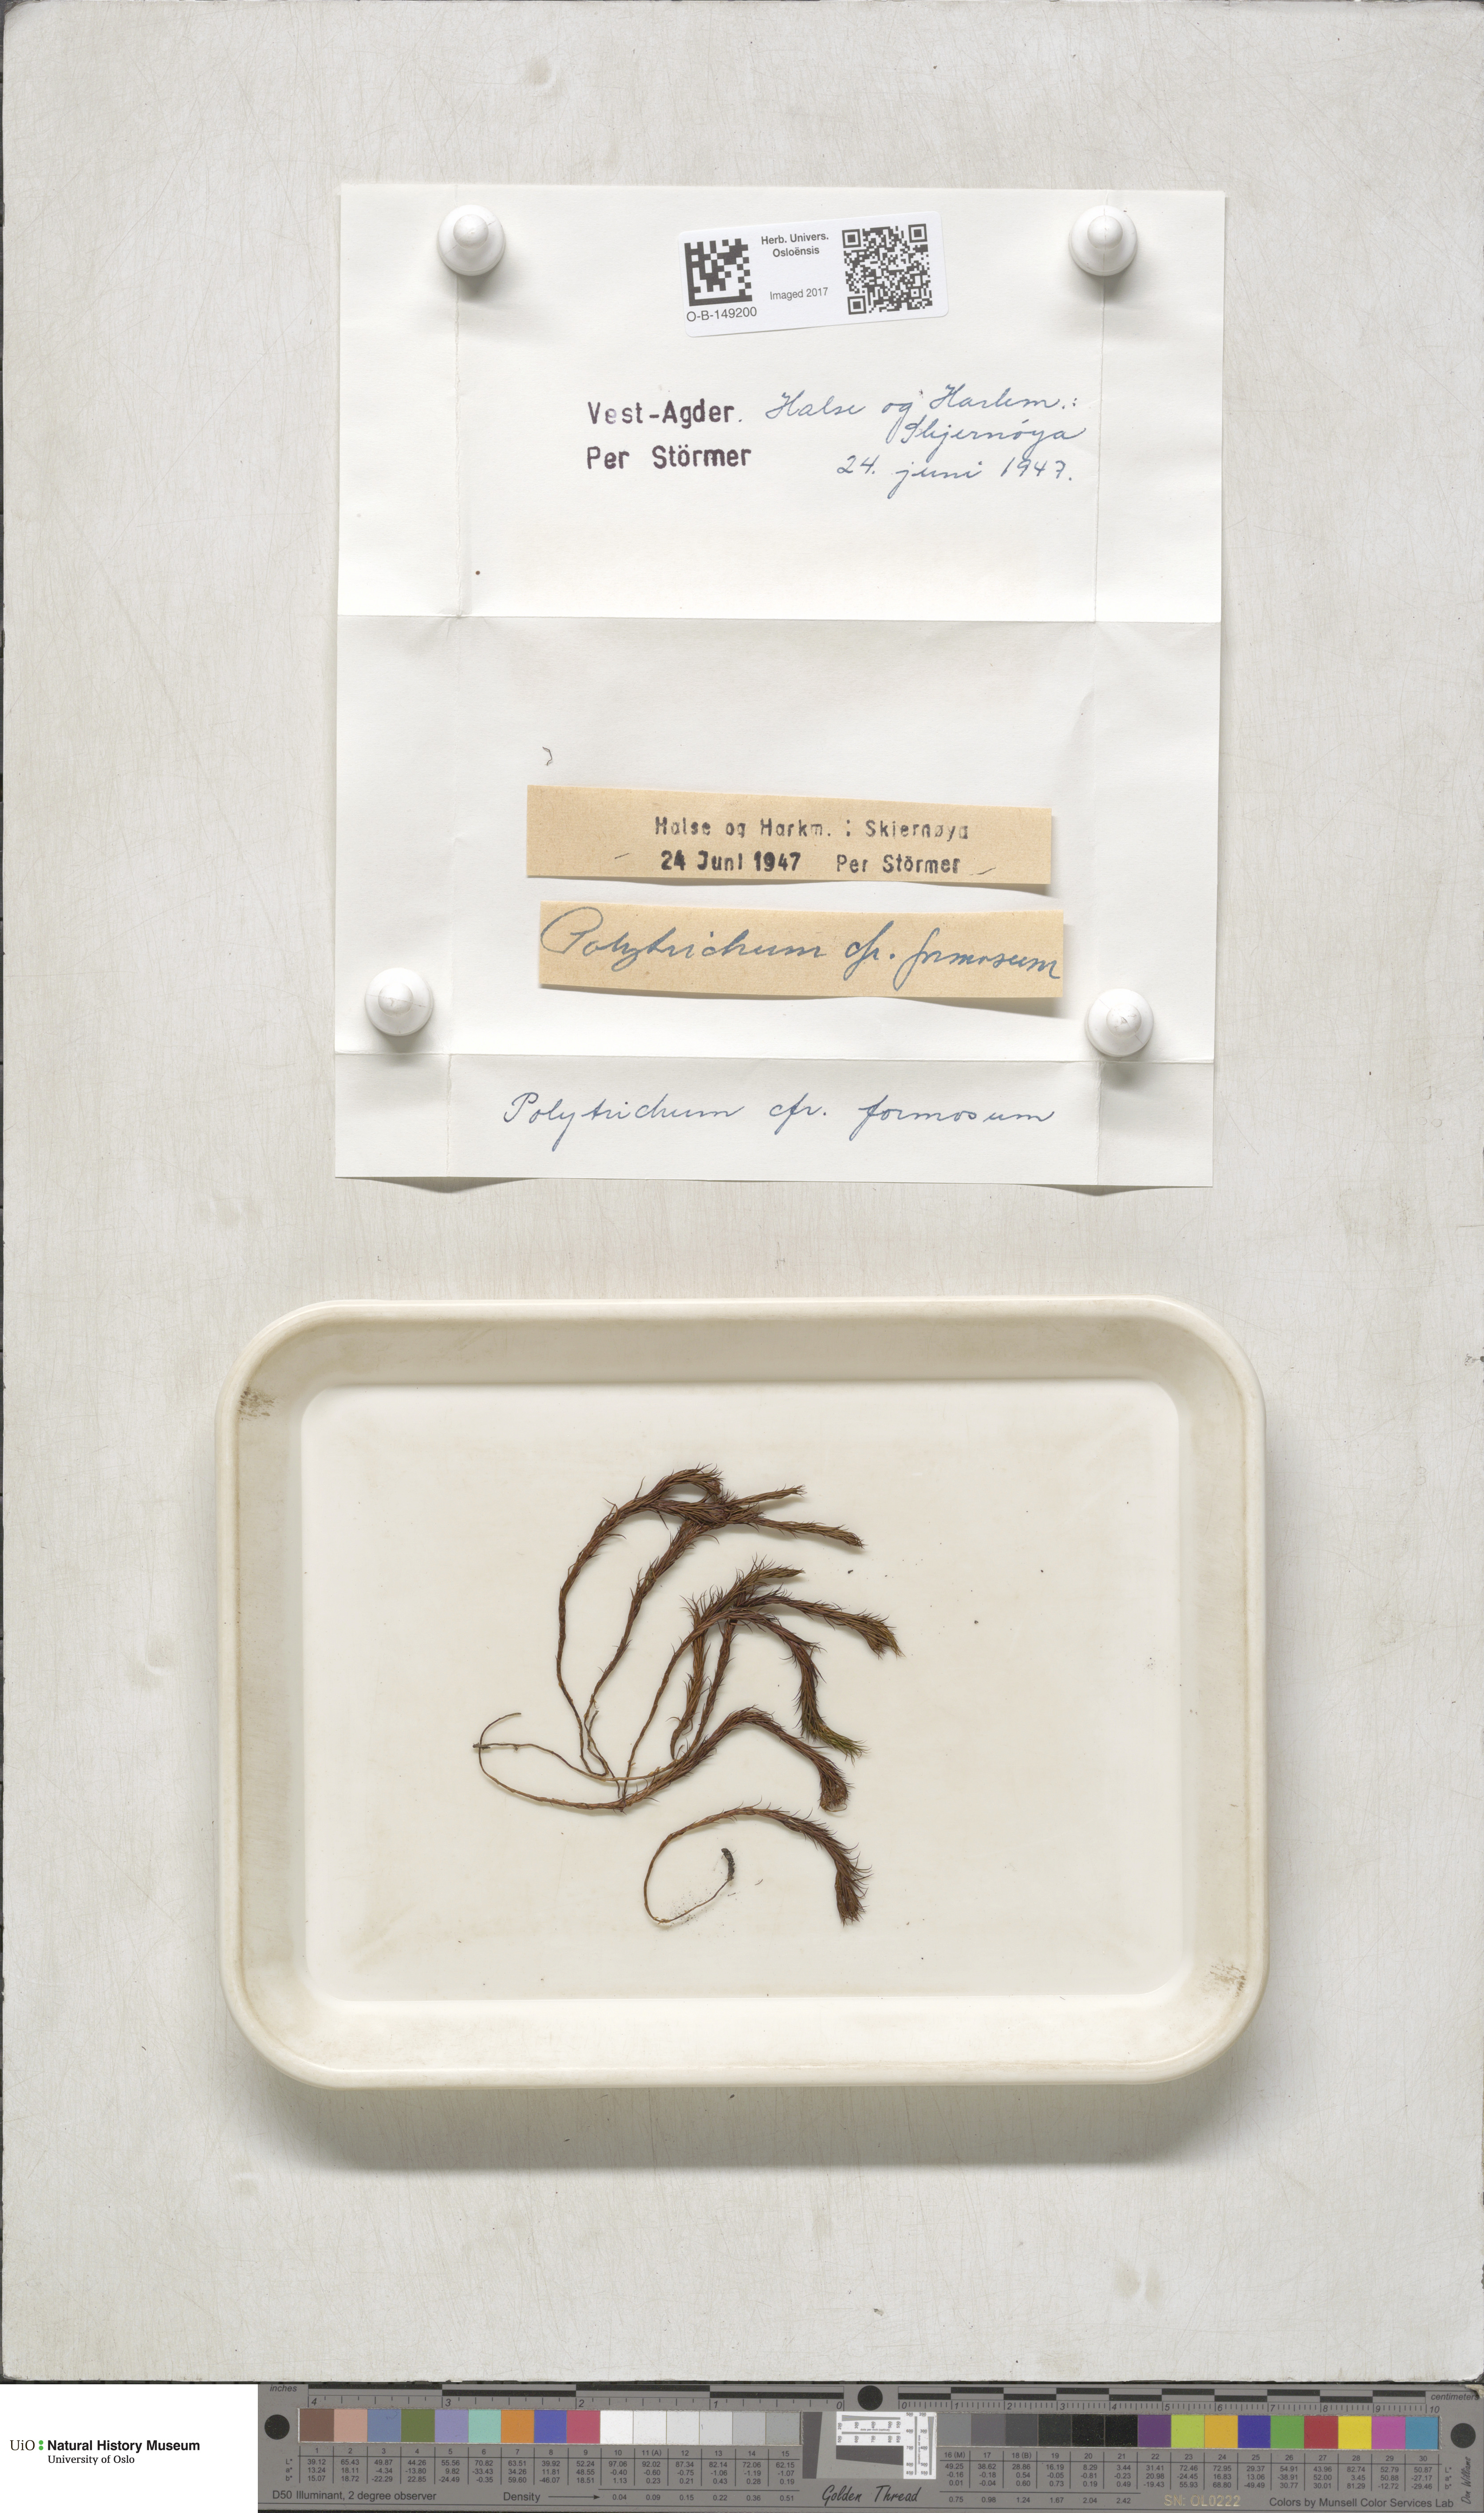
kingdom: Plantae
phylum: Bryophyta
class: Polytrichopsida
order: Polytrichales
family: Polytrichaceae
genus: Polytrichum
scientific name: Polytrichum formosum
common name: Bank haircap moss
